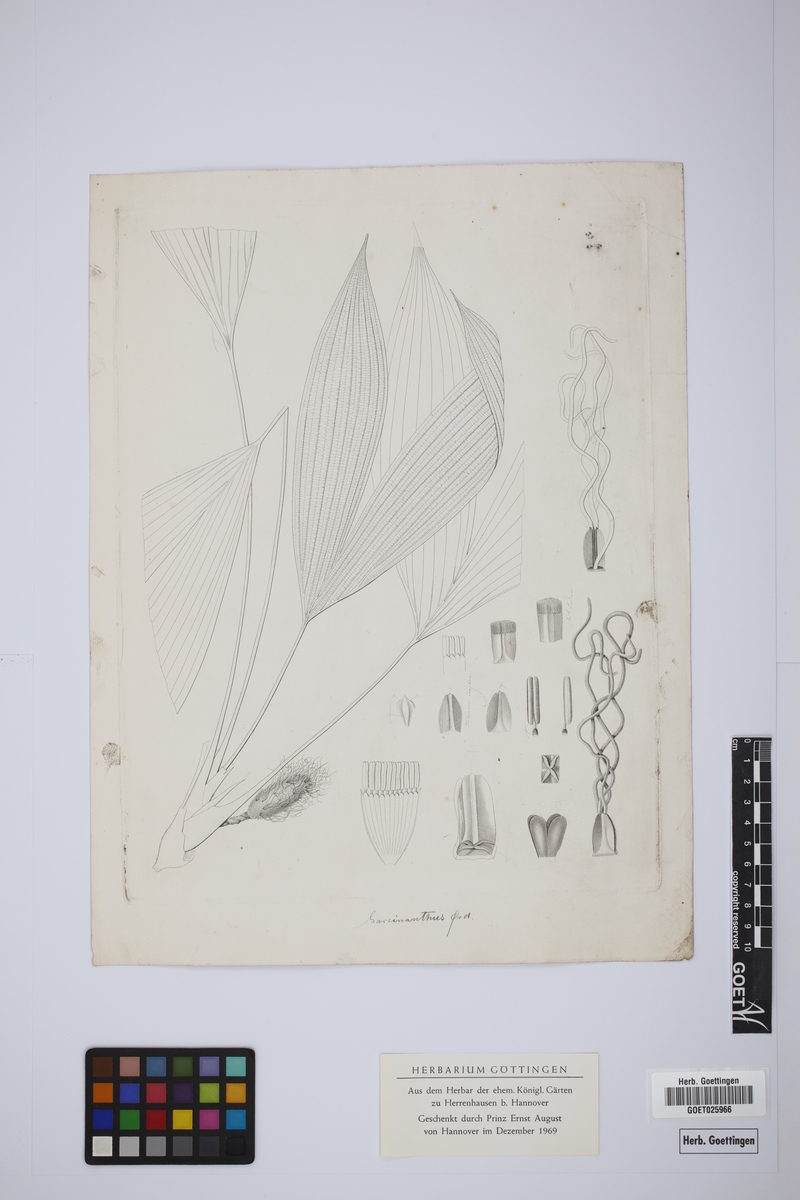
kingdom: Plantae
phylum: Tracheophyta
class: Liliopsida
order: Pandanales
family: Cyclanthaceae
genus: Asplundia
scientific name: Asplundia utilis
